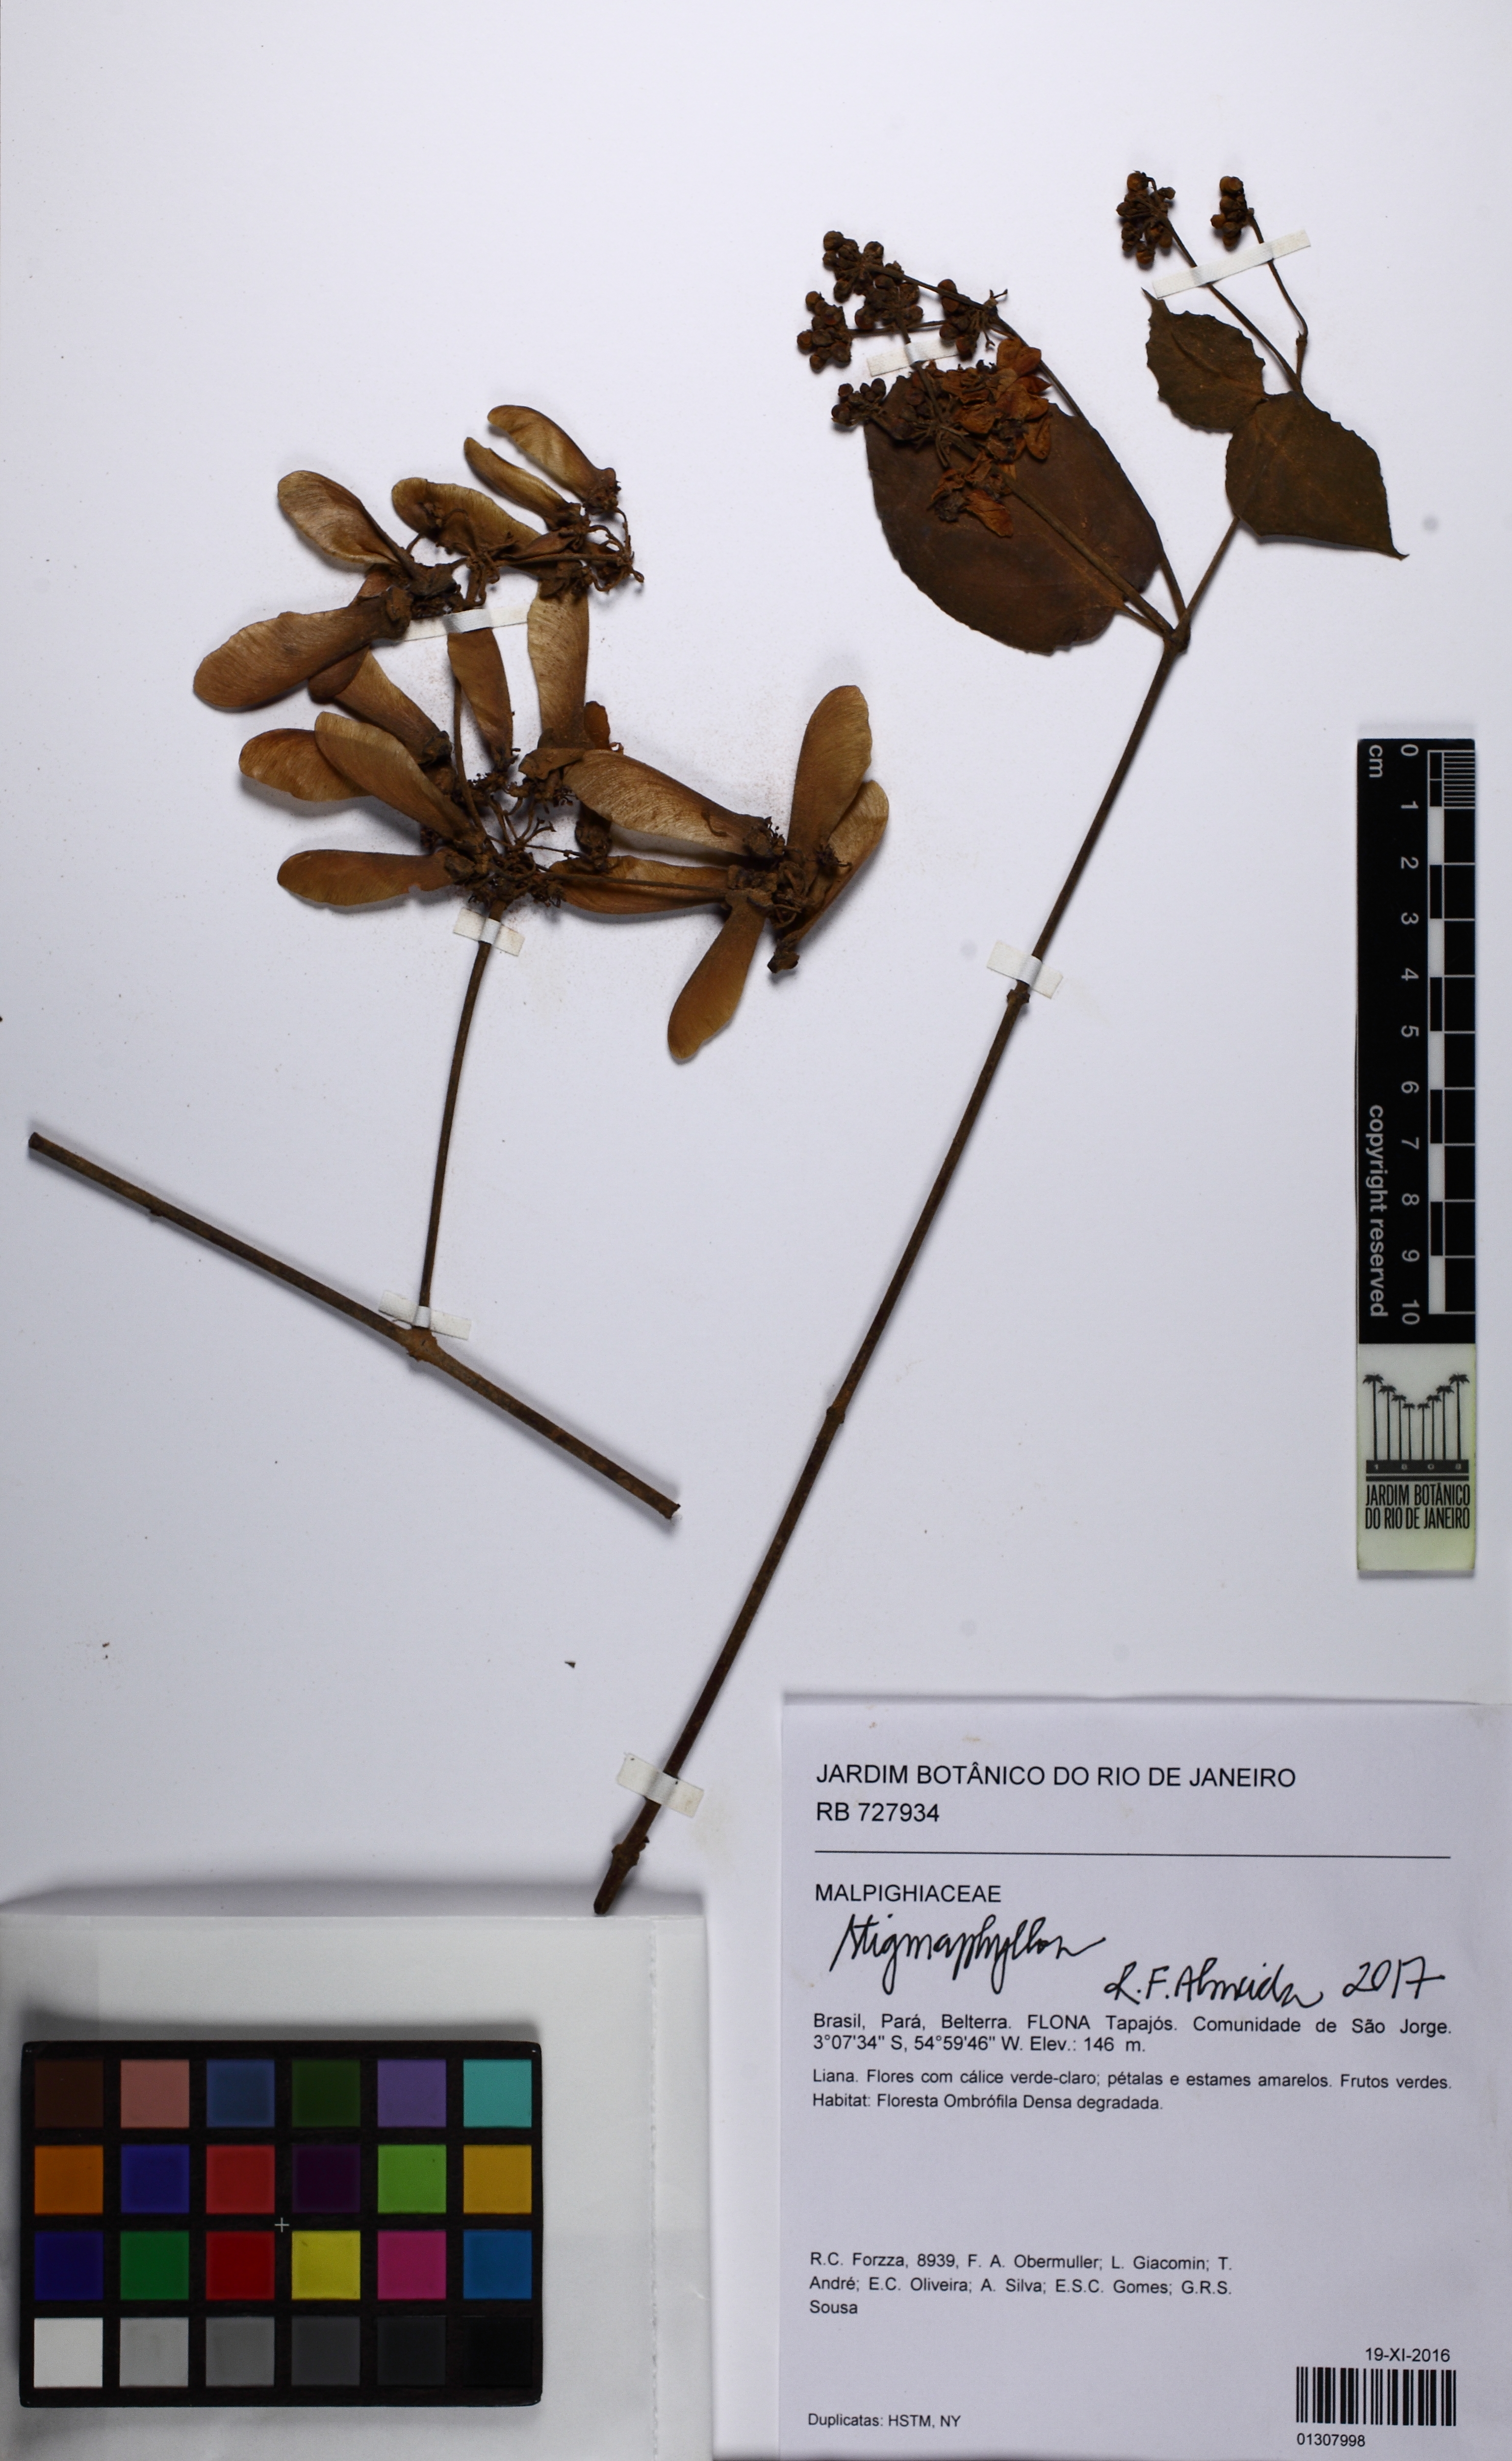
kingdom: Plantae
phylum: Tracheophyta
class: Magnoliopsida
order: Malpighiales
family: Malpighiaceae
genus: Stigmaphyllon
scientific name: Stigmaphyllon
